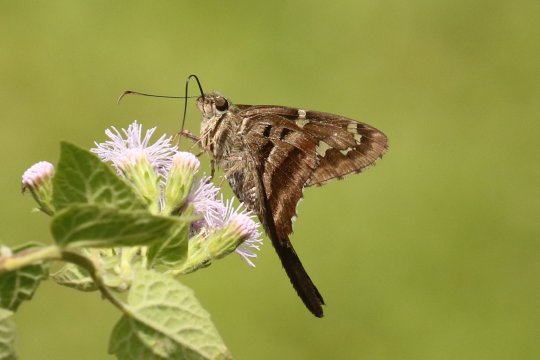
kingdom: Animalia
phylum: Arthropoda
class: Insecta
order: Lepidoptera
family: Hesperiidae
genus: Urbanus
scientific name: Urbanus proteus
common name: Long-tailed Skipper
